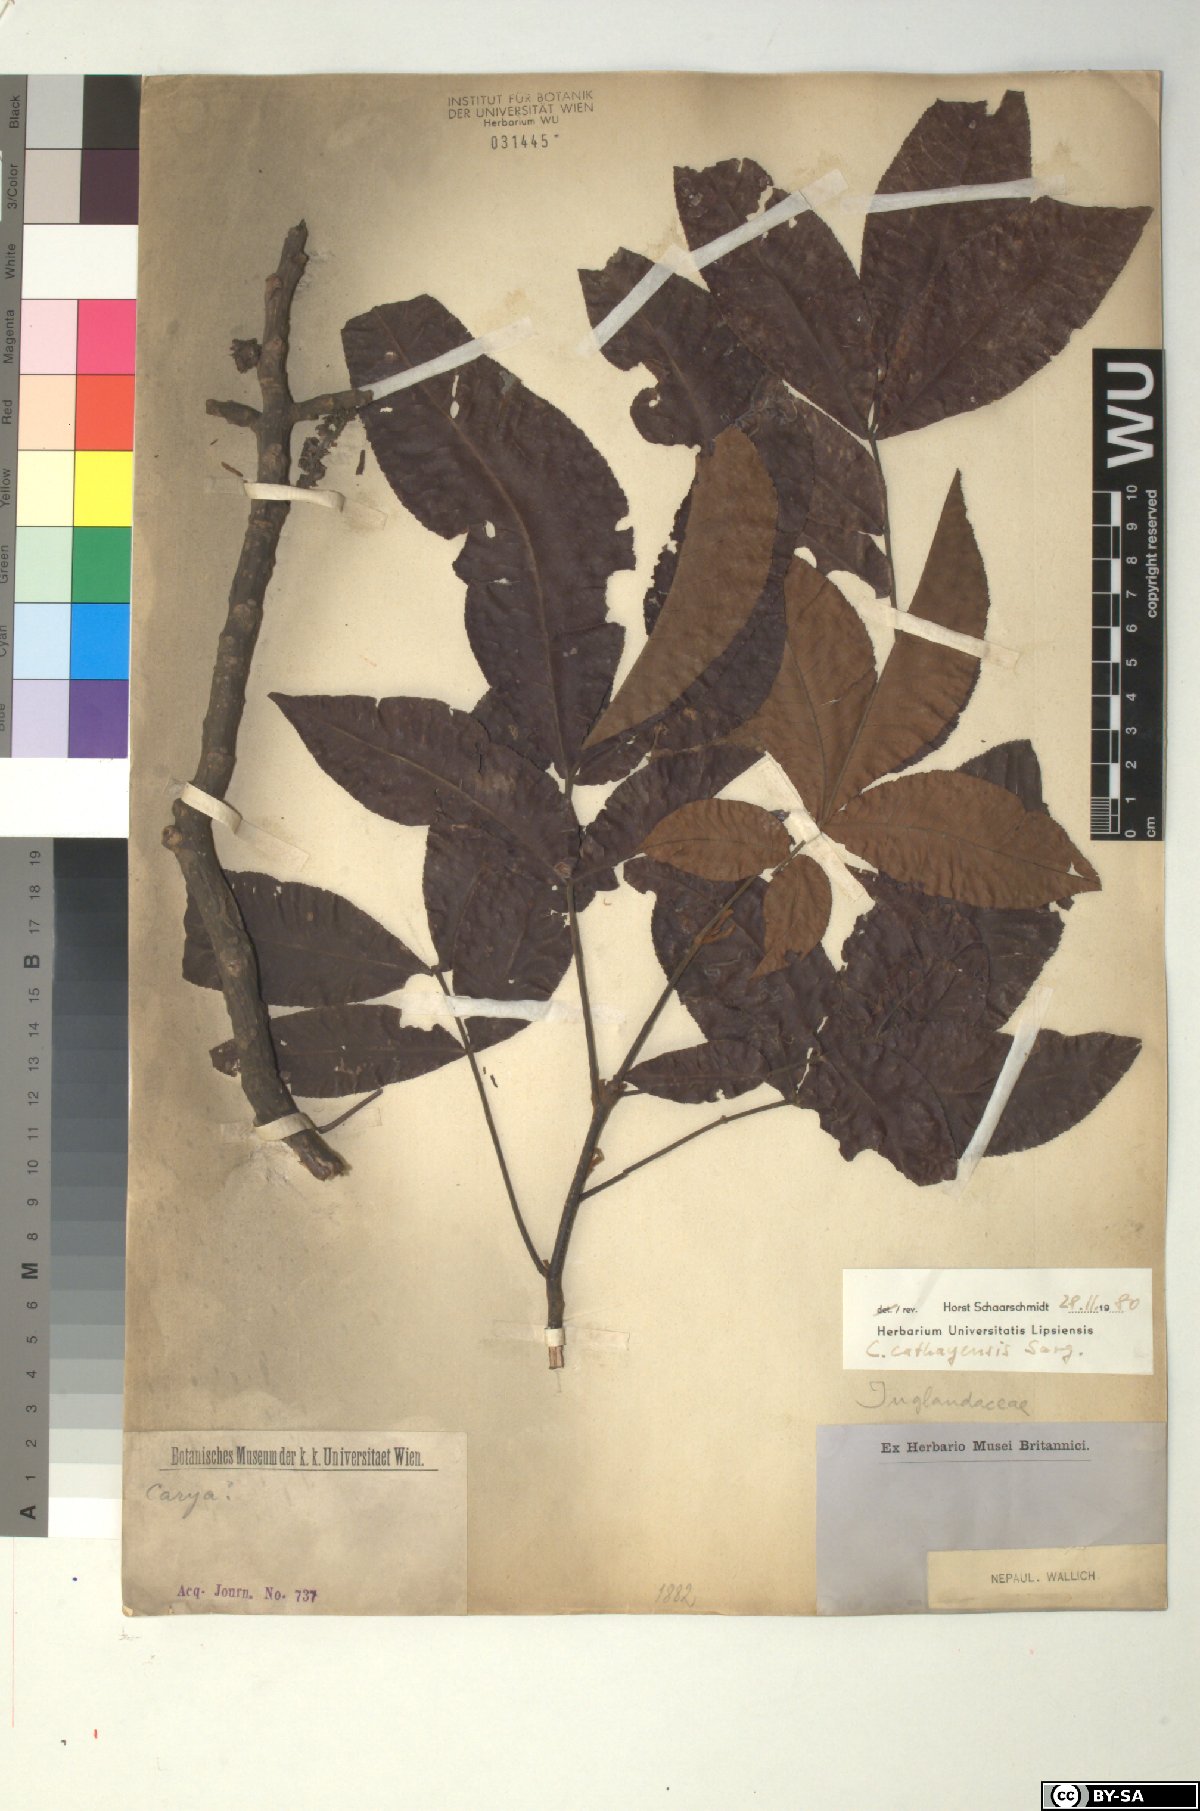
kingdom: Plantae
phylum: Tracheophyta
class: Magnoliopsida
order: Fagales
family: Juglandaceae
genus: Carya
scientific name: Carya cathayensis
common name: Cathay hickory
